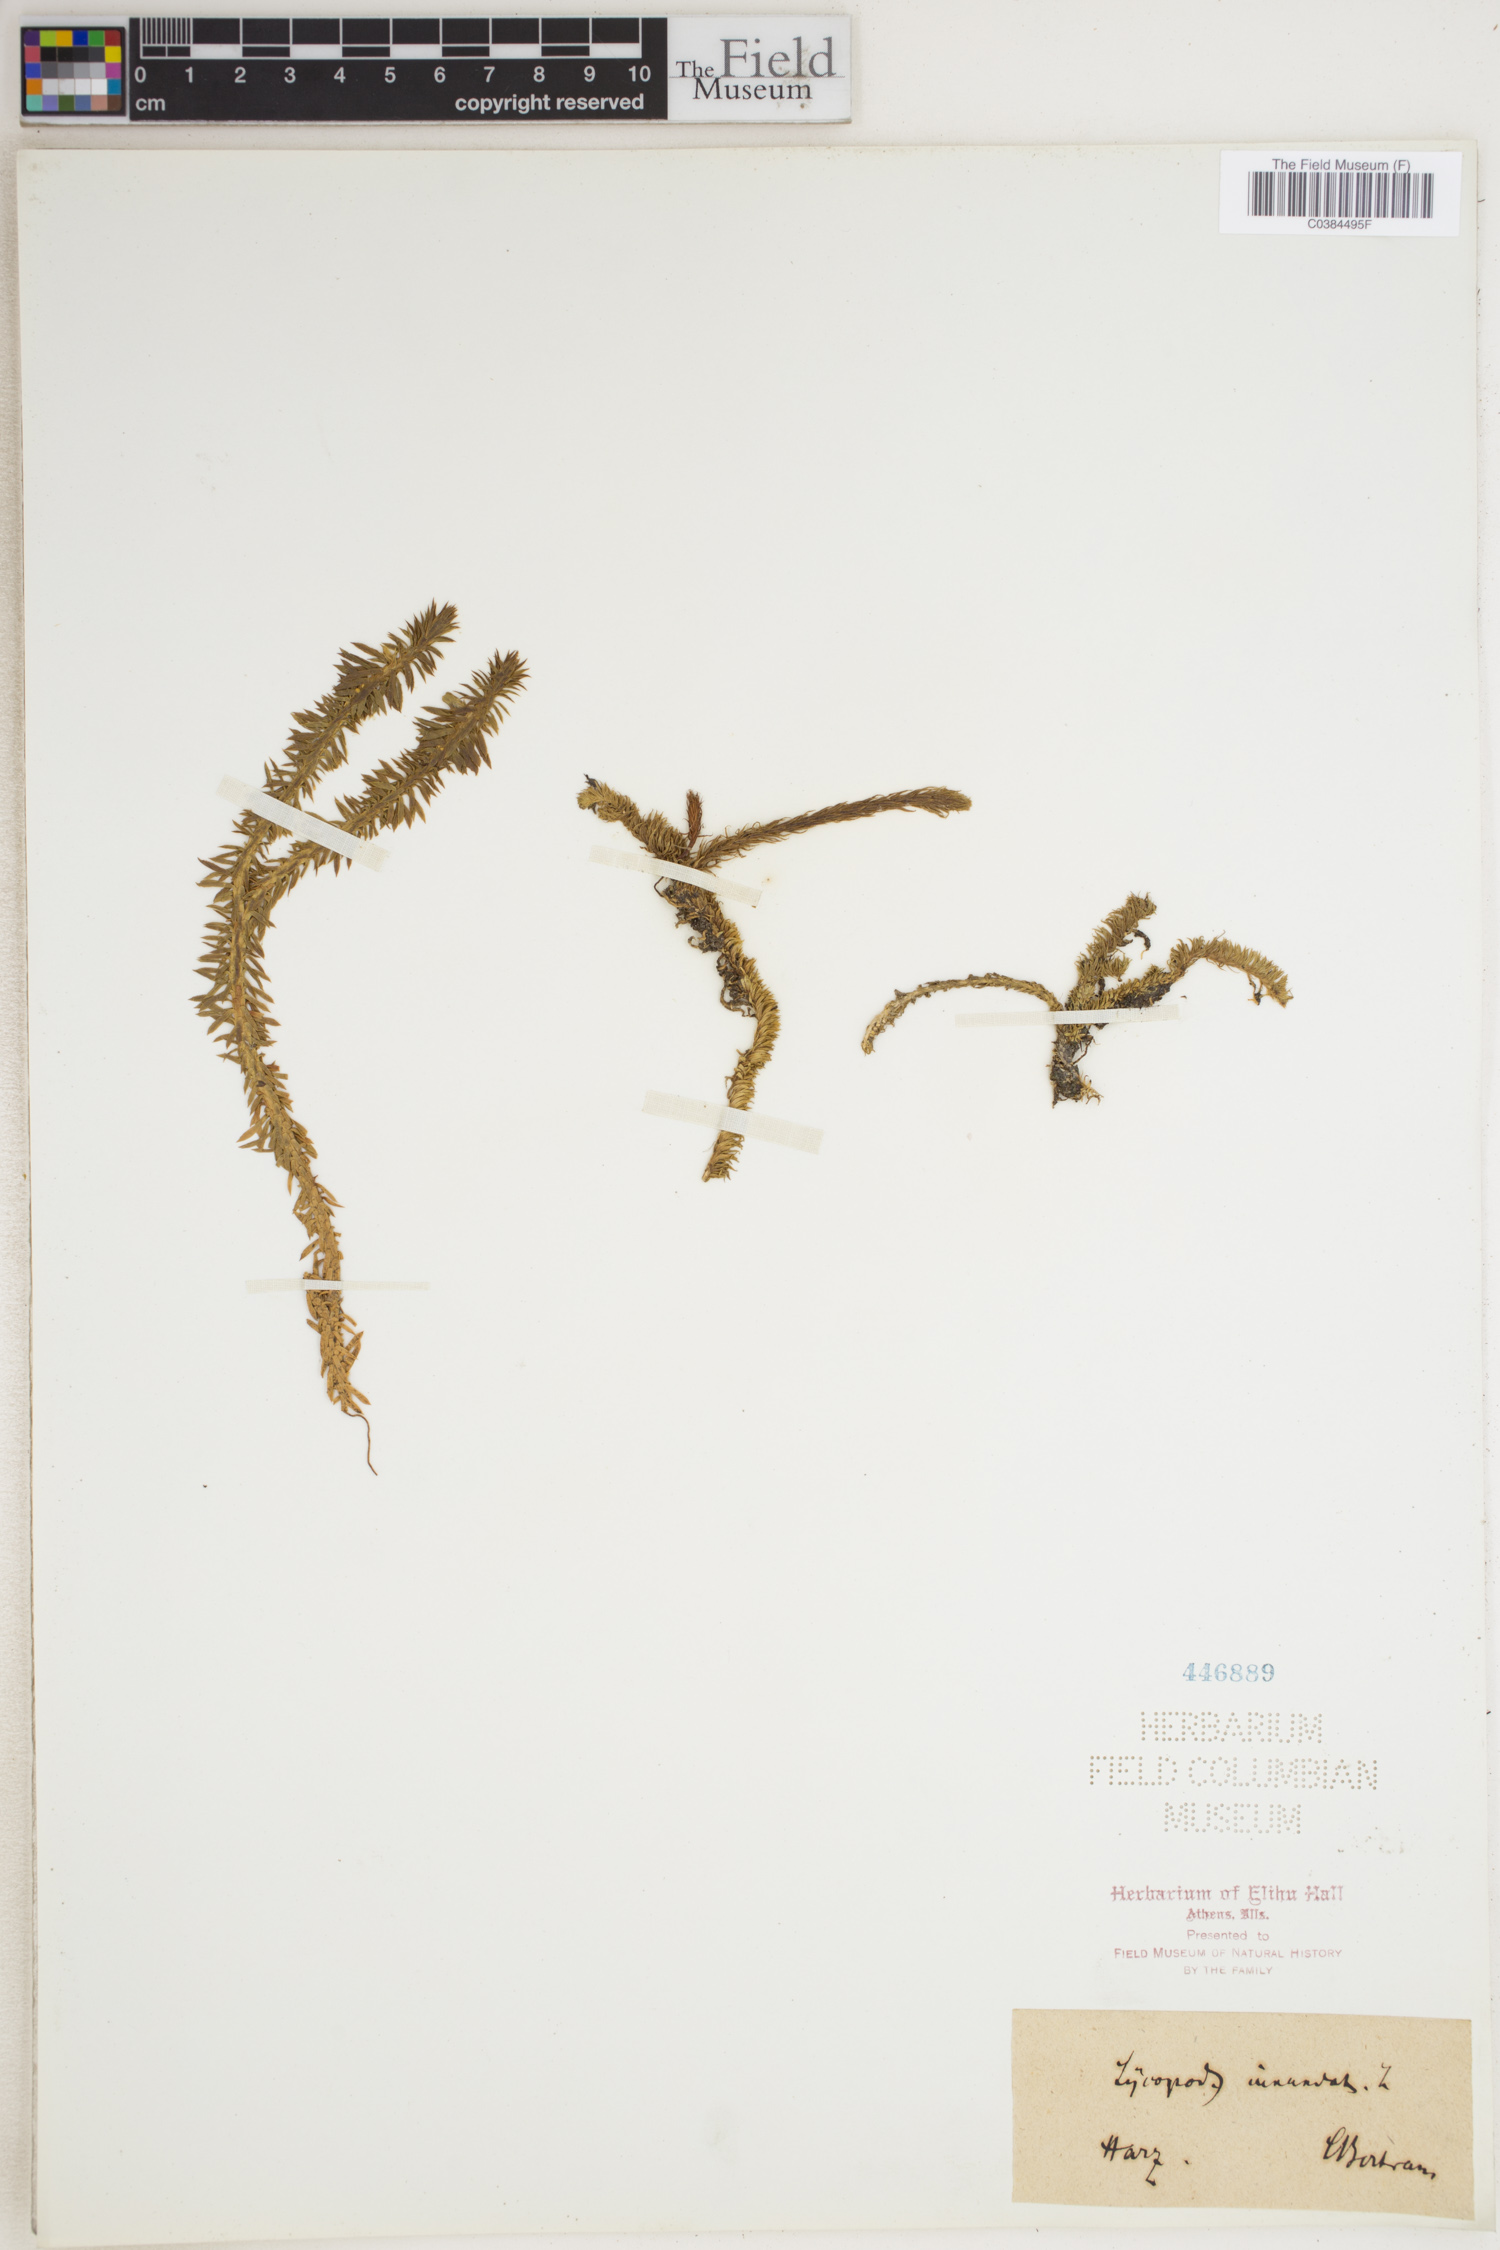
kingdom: Plantae
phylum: Tracheophyta
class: Lycopodiopsida
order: Lycopodiales
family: Lycopodiaceae
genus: Lycopodiella
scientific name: Lycopodiella inundata
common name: Marsh clubmoss
